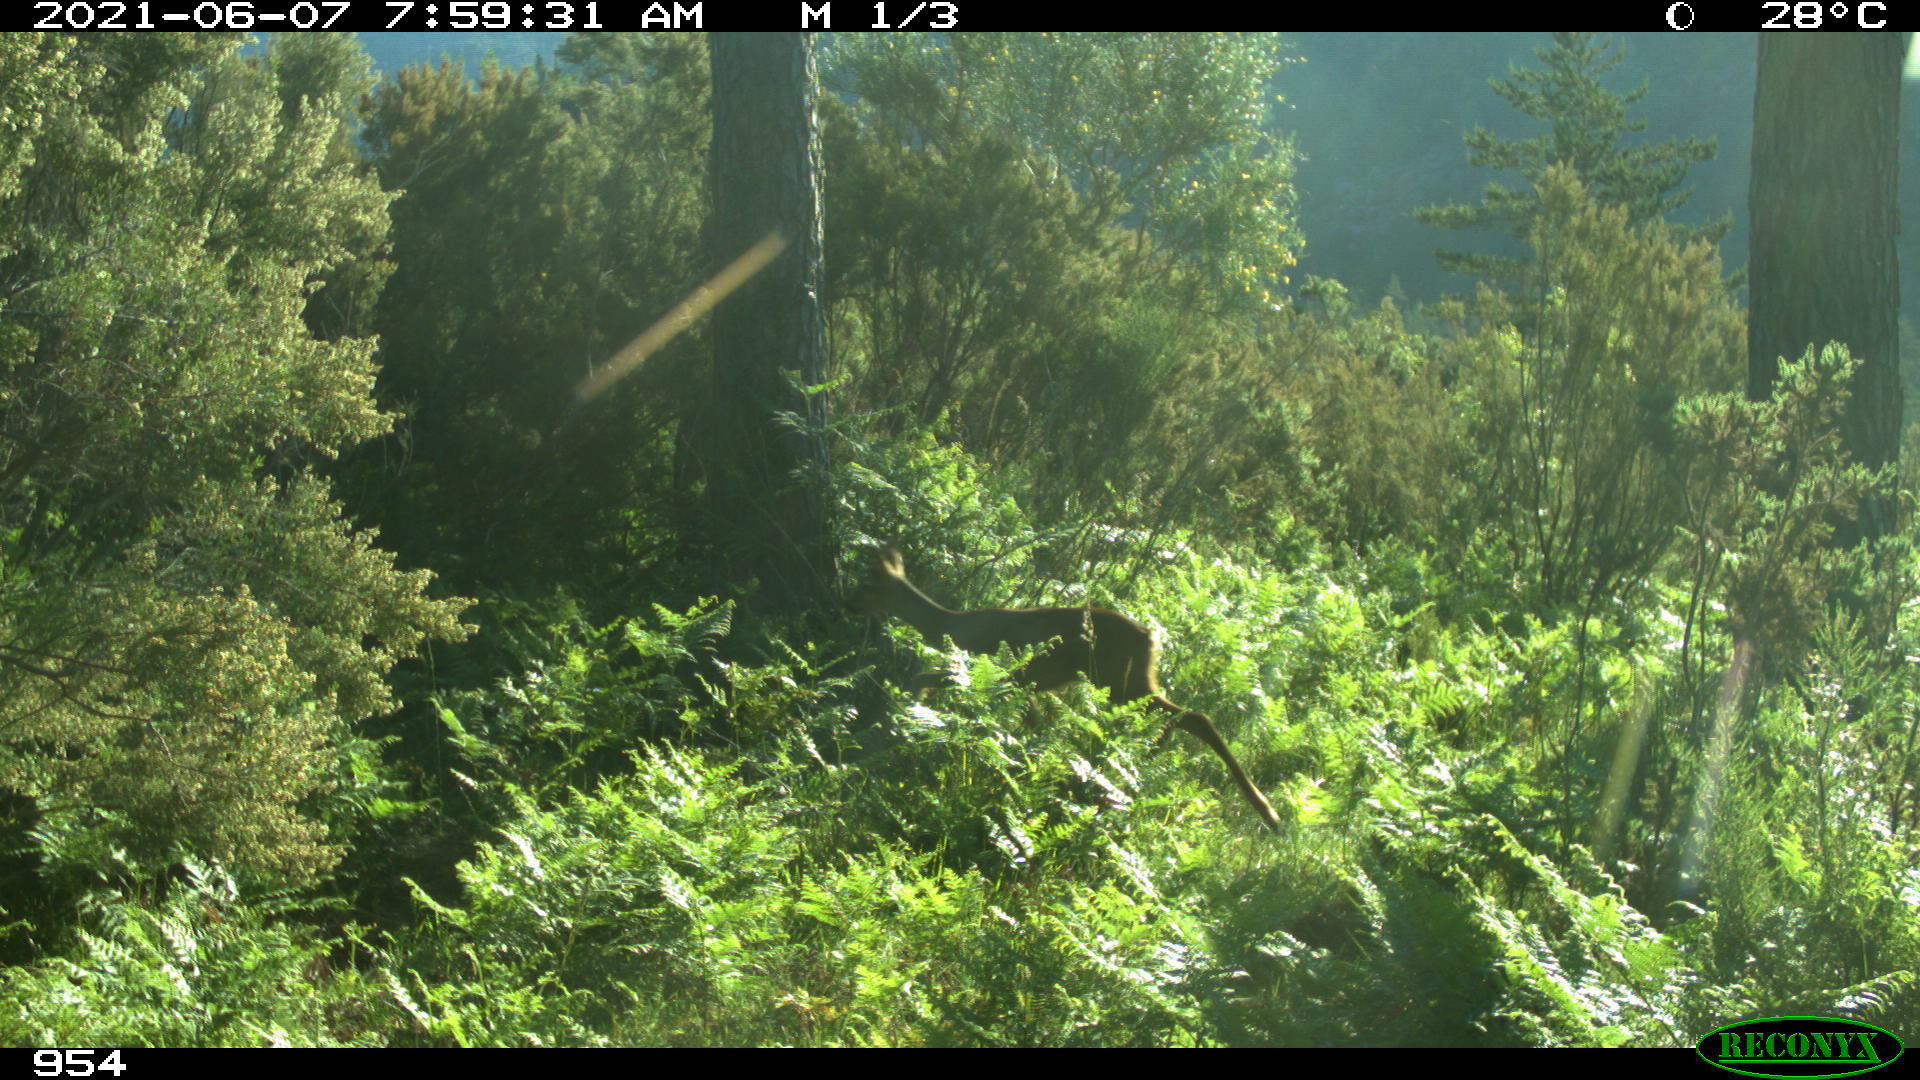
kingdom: Animalia
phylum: Chordata
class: Mammalia
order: Artiodactyla
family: Cervidae
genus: Capreolus
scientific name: Capreolus capreolus
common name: Western roe deer
